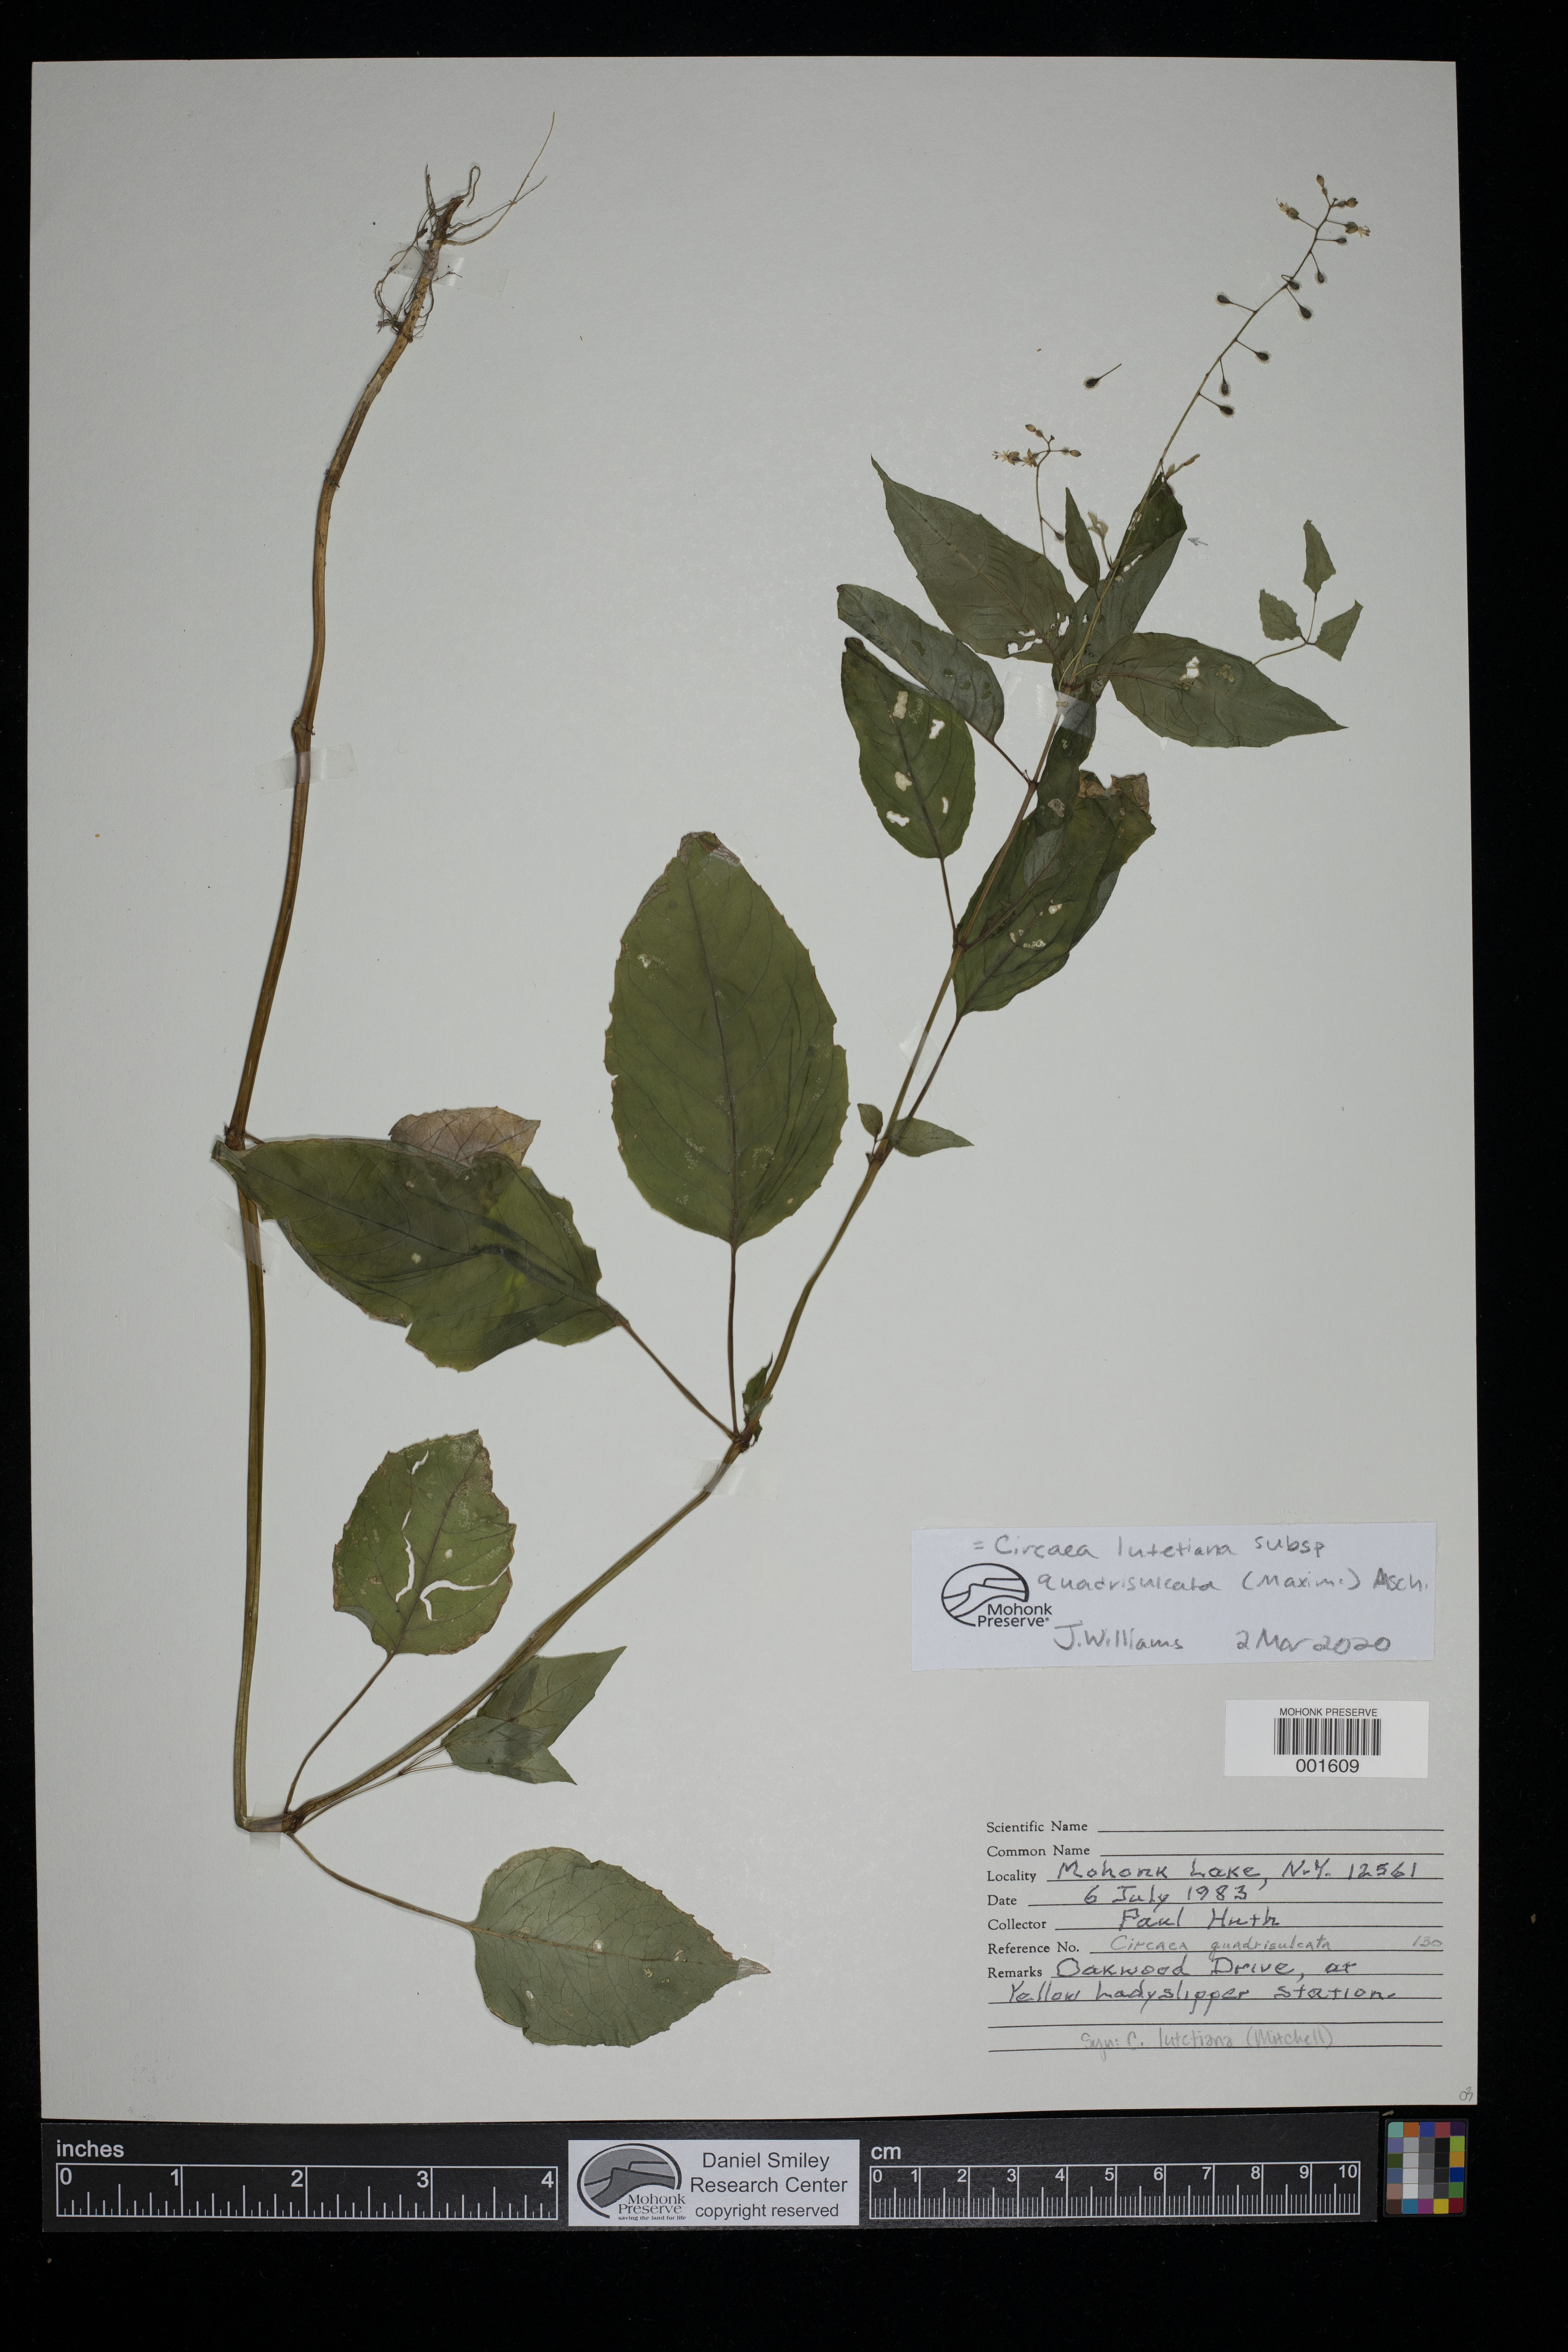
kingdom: Plantae
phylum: Tracheophyta
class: Magnoliopsida
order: Myrtales
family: Onagraceae
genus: Circaea
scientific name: Circaea canadensis
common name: Broad-leaved enchanter's nightshade
